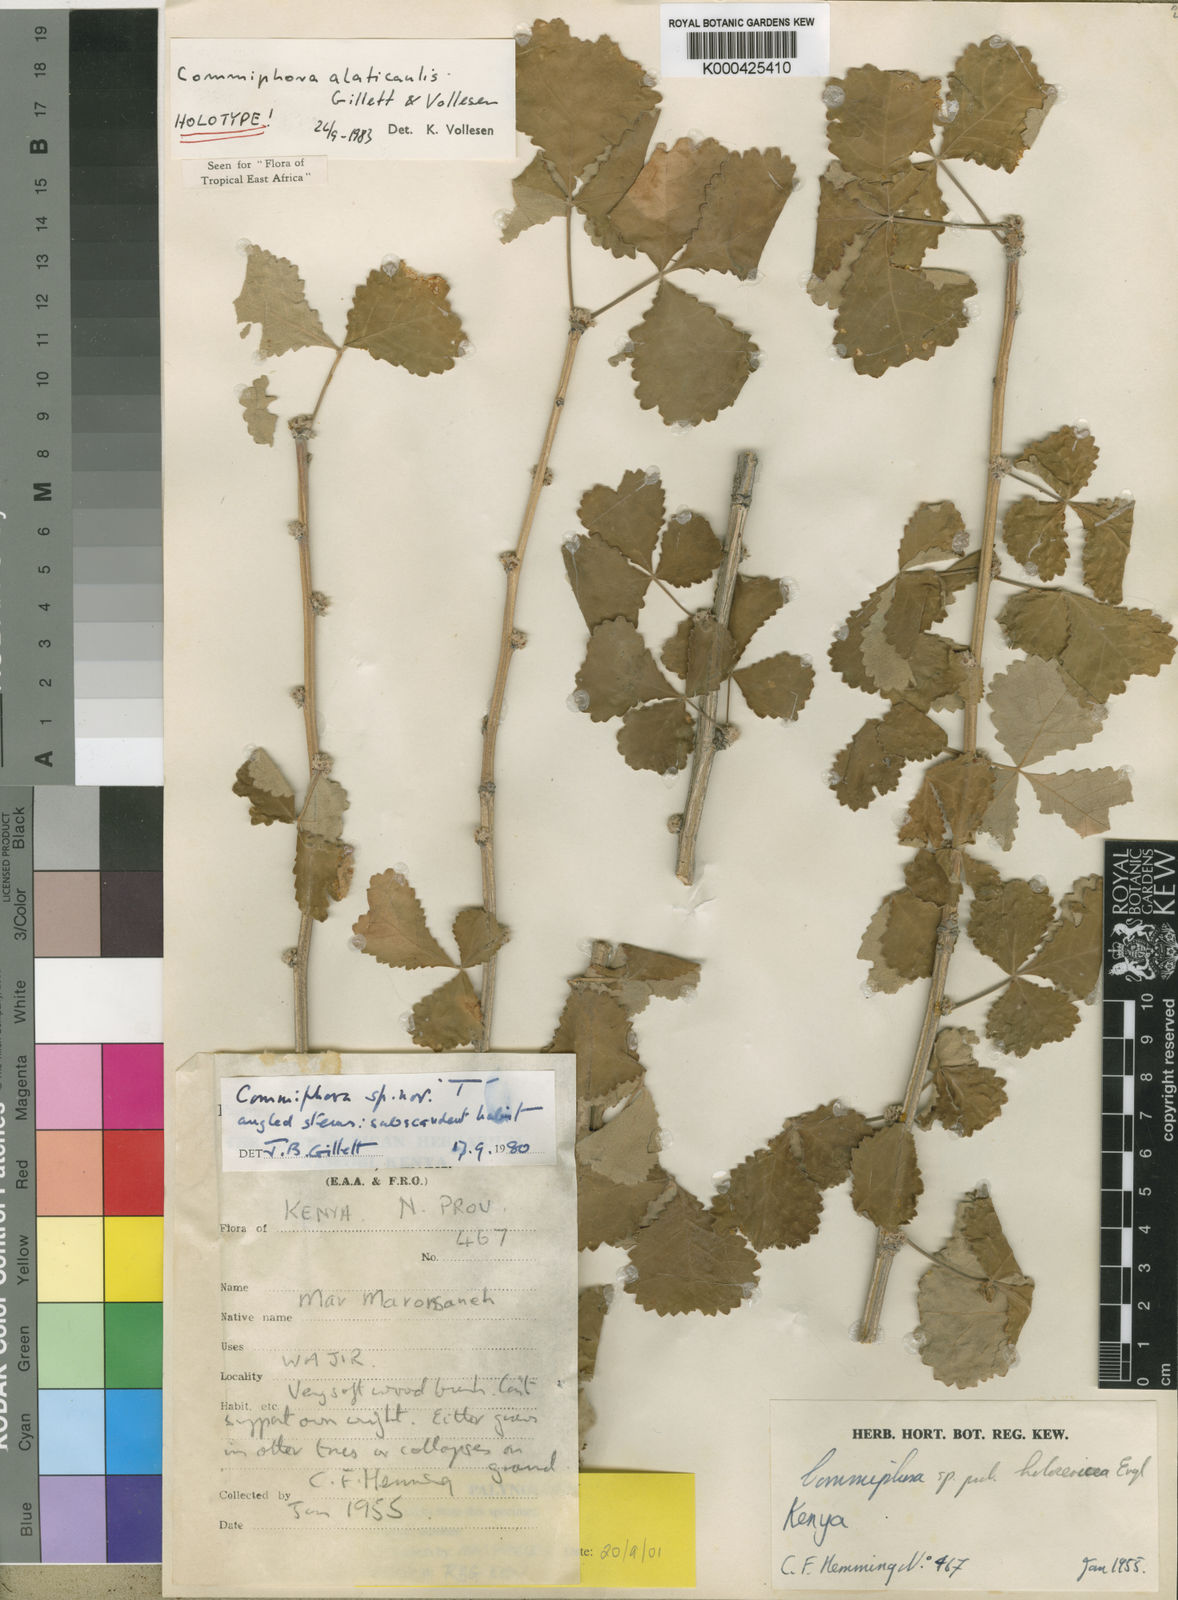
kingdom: Plantae
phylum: Tracheophyta
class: Magnoliopsida
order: Sapindales
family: Burseraceae
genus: Commiphora
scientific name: Commiphora alaticaulis
